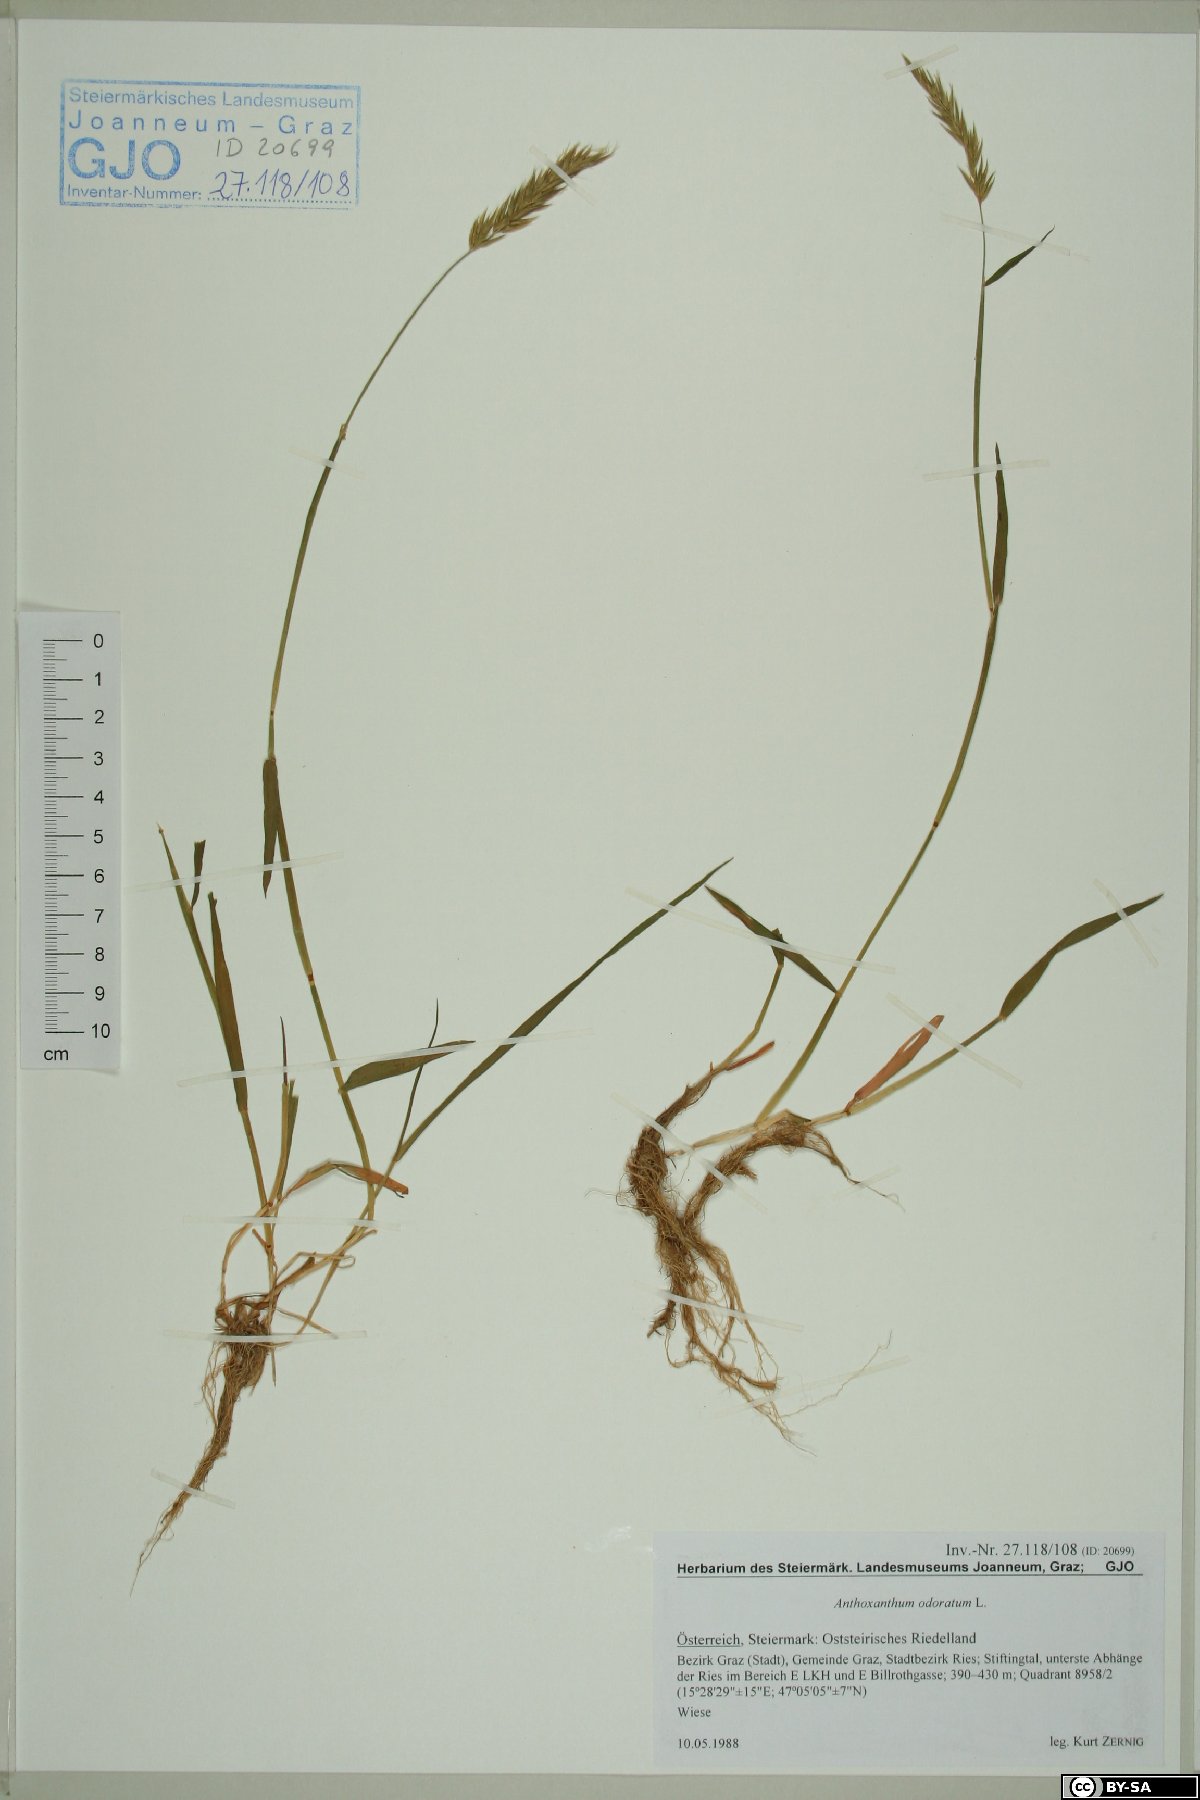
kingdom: Plantae
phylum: Tracheophyta
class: Liliopsida
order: Poales
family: Poaceae
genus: Anthoxanthum
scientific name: Anthoxanthum odoratum
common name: Sweet vernalgrass
